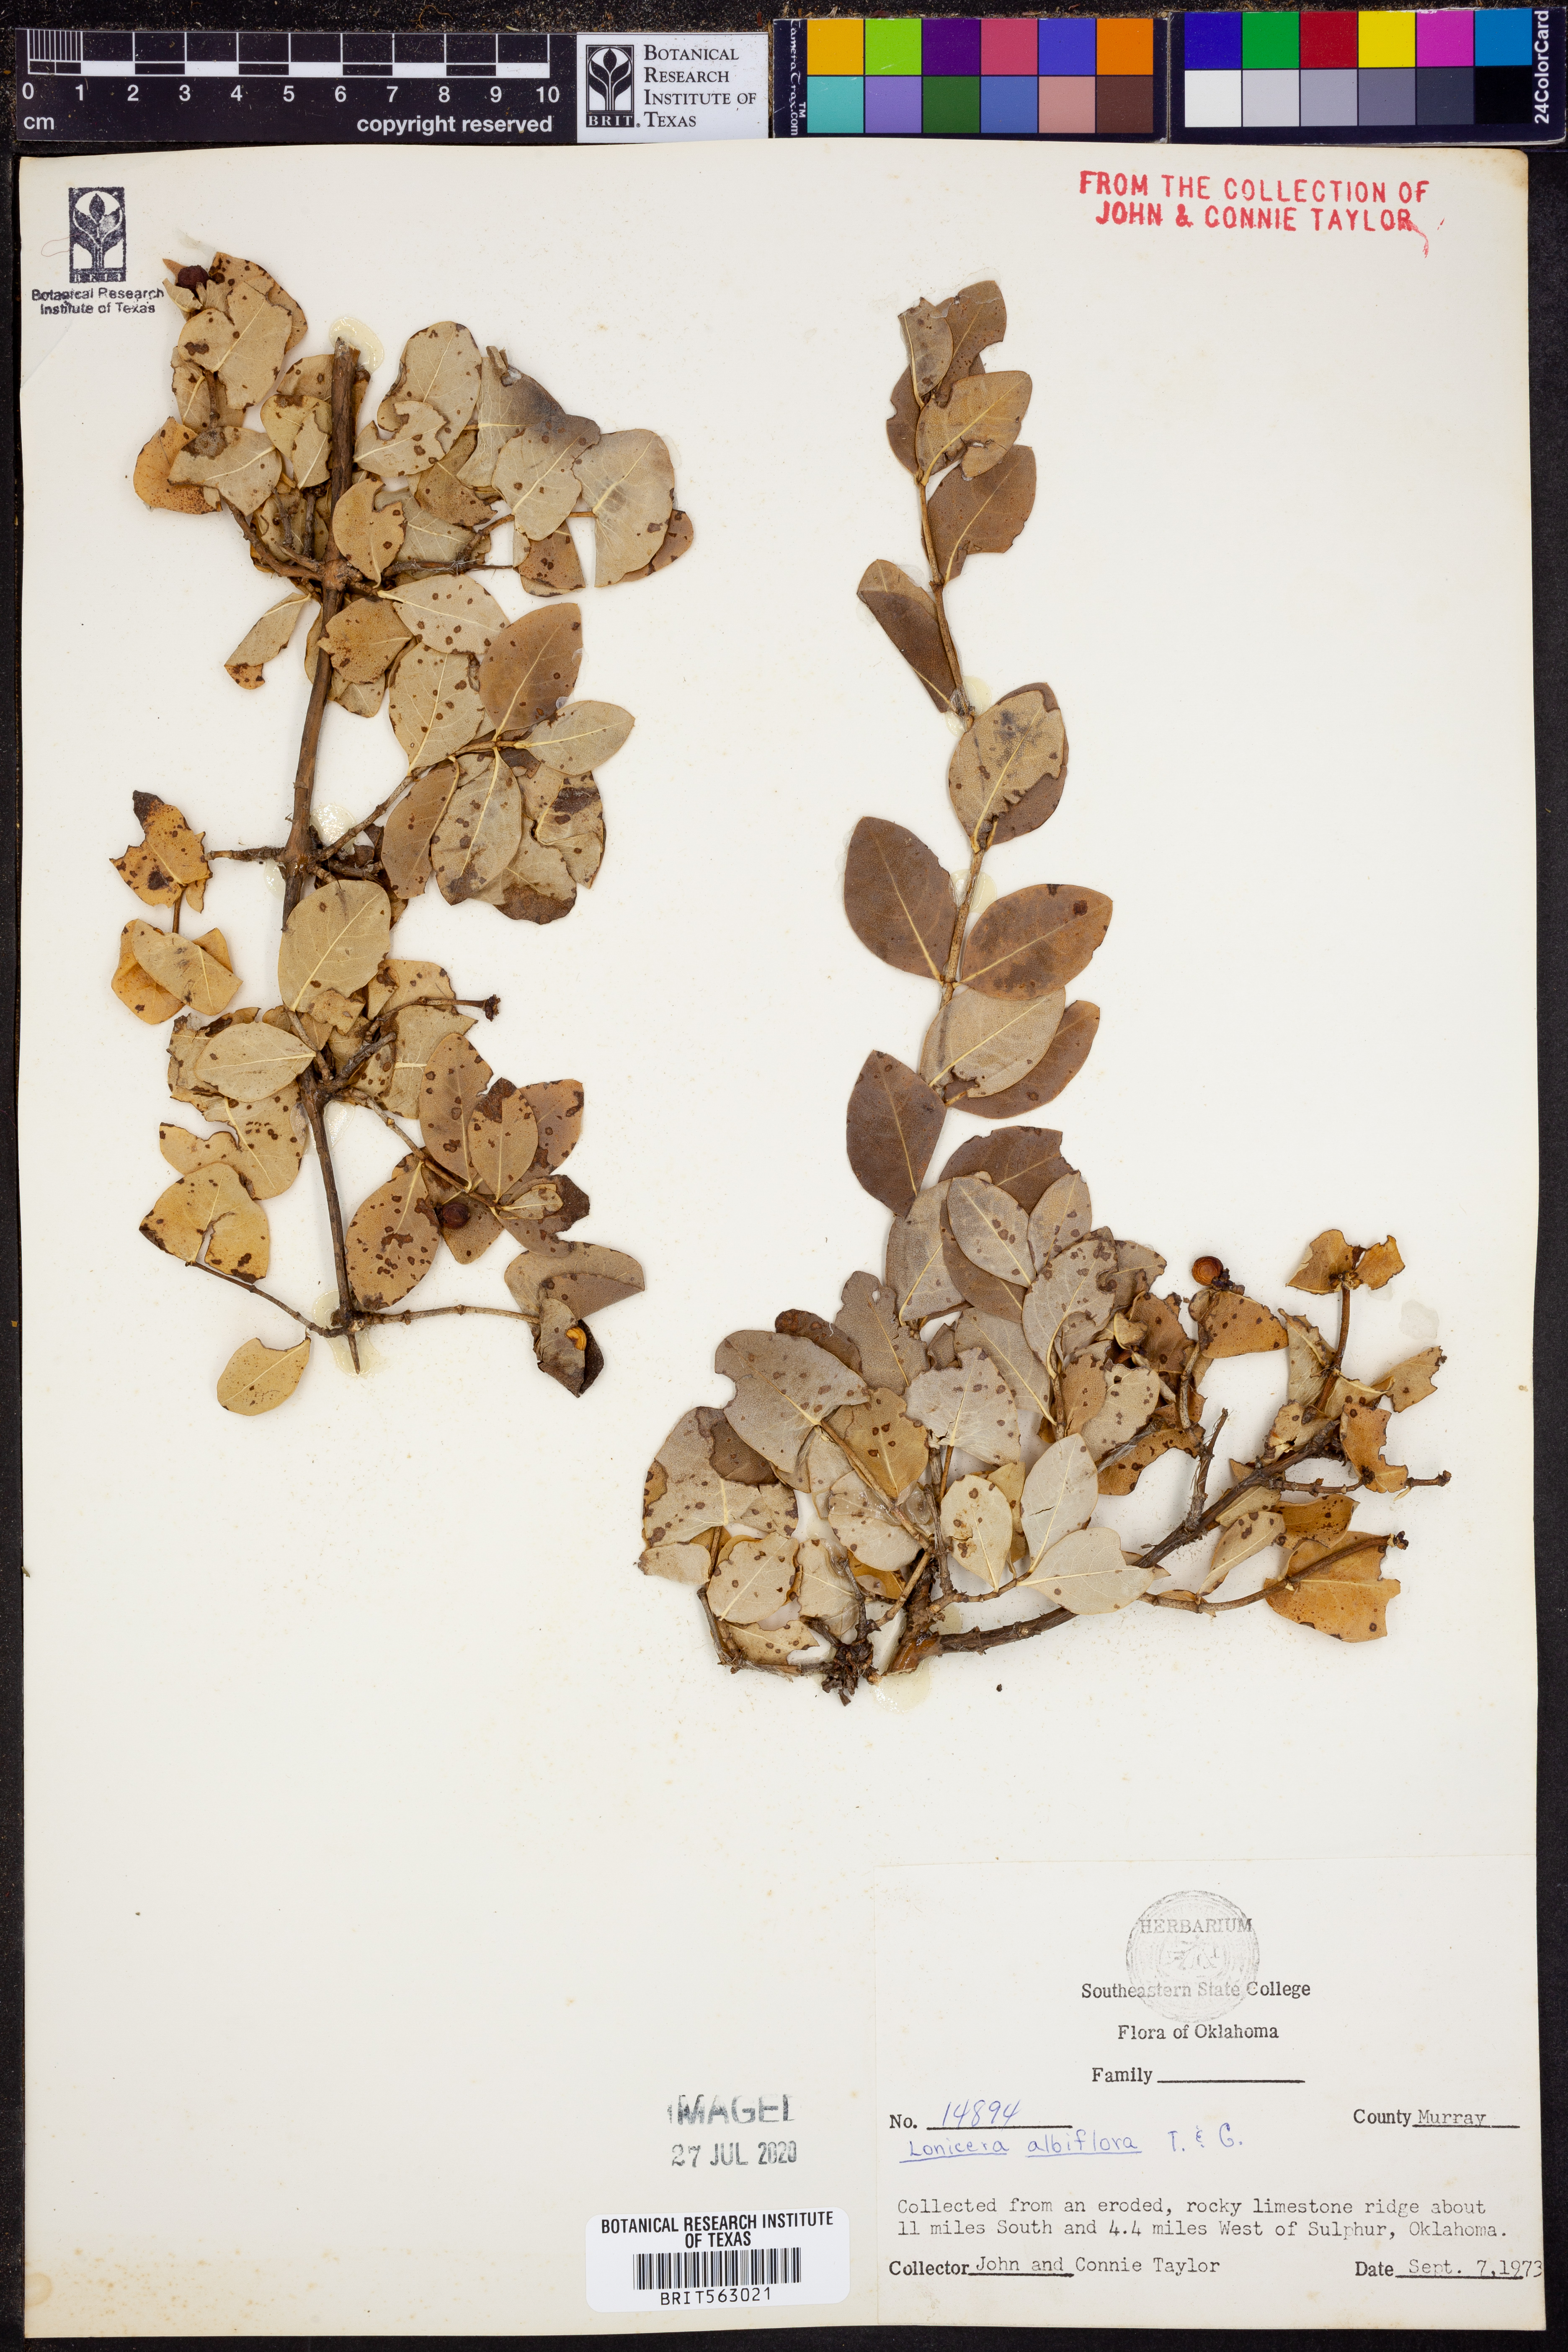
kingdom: Plantae
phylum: Tracheophyta
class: Magnoliopsida
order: Dipsacales
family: Caprifoliaceae
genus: Lonicera
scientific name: Lonicera albiflora
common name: White honeysuckle
